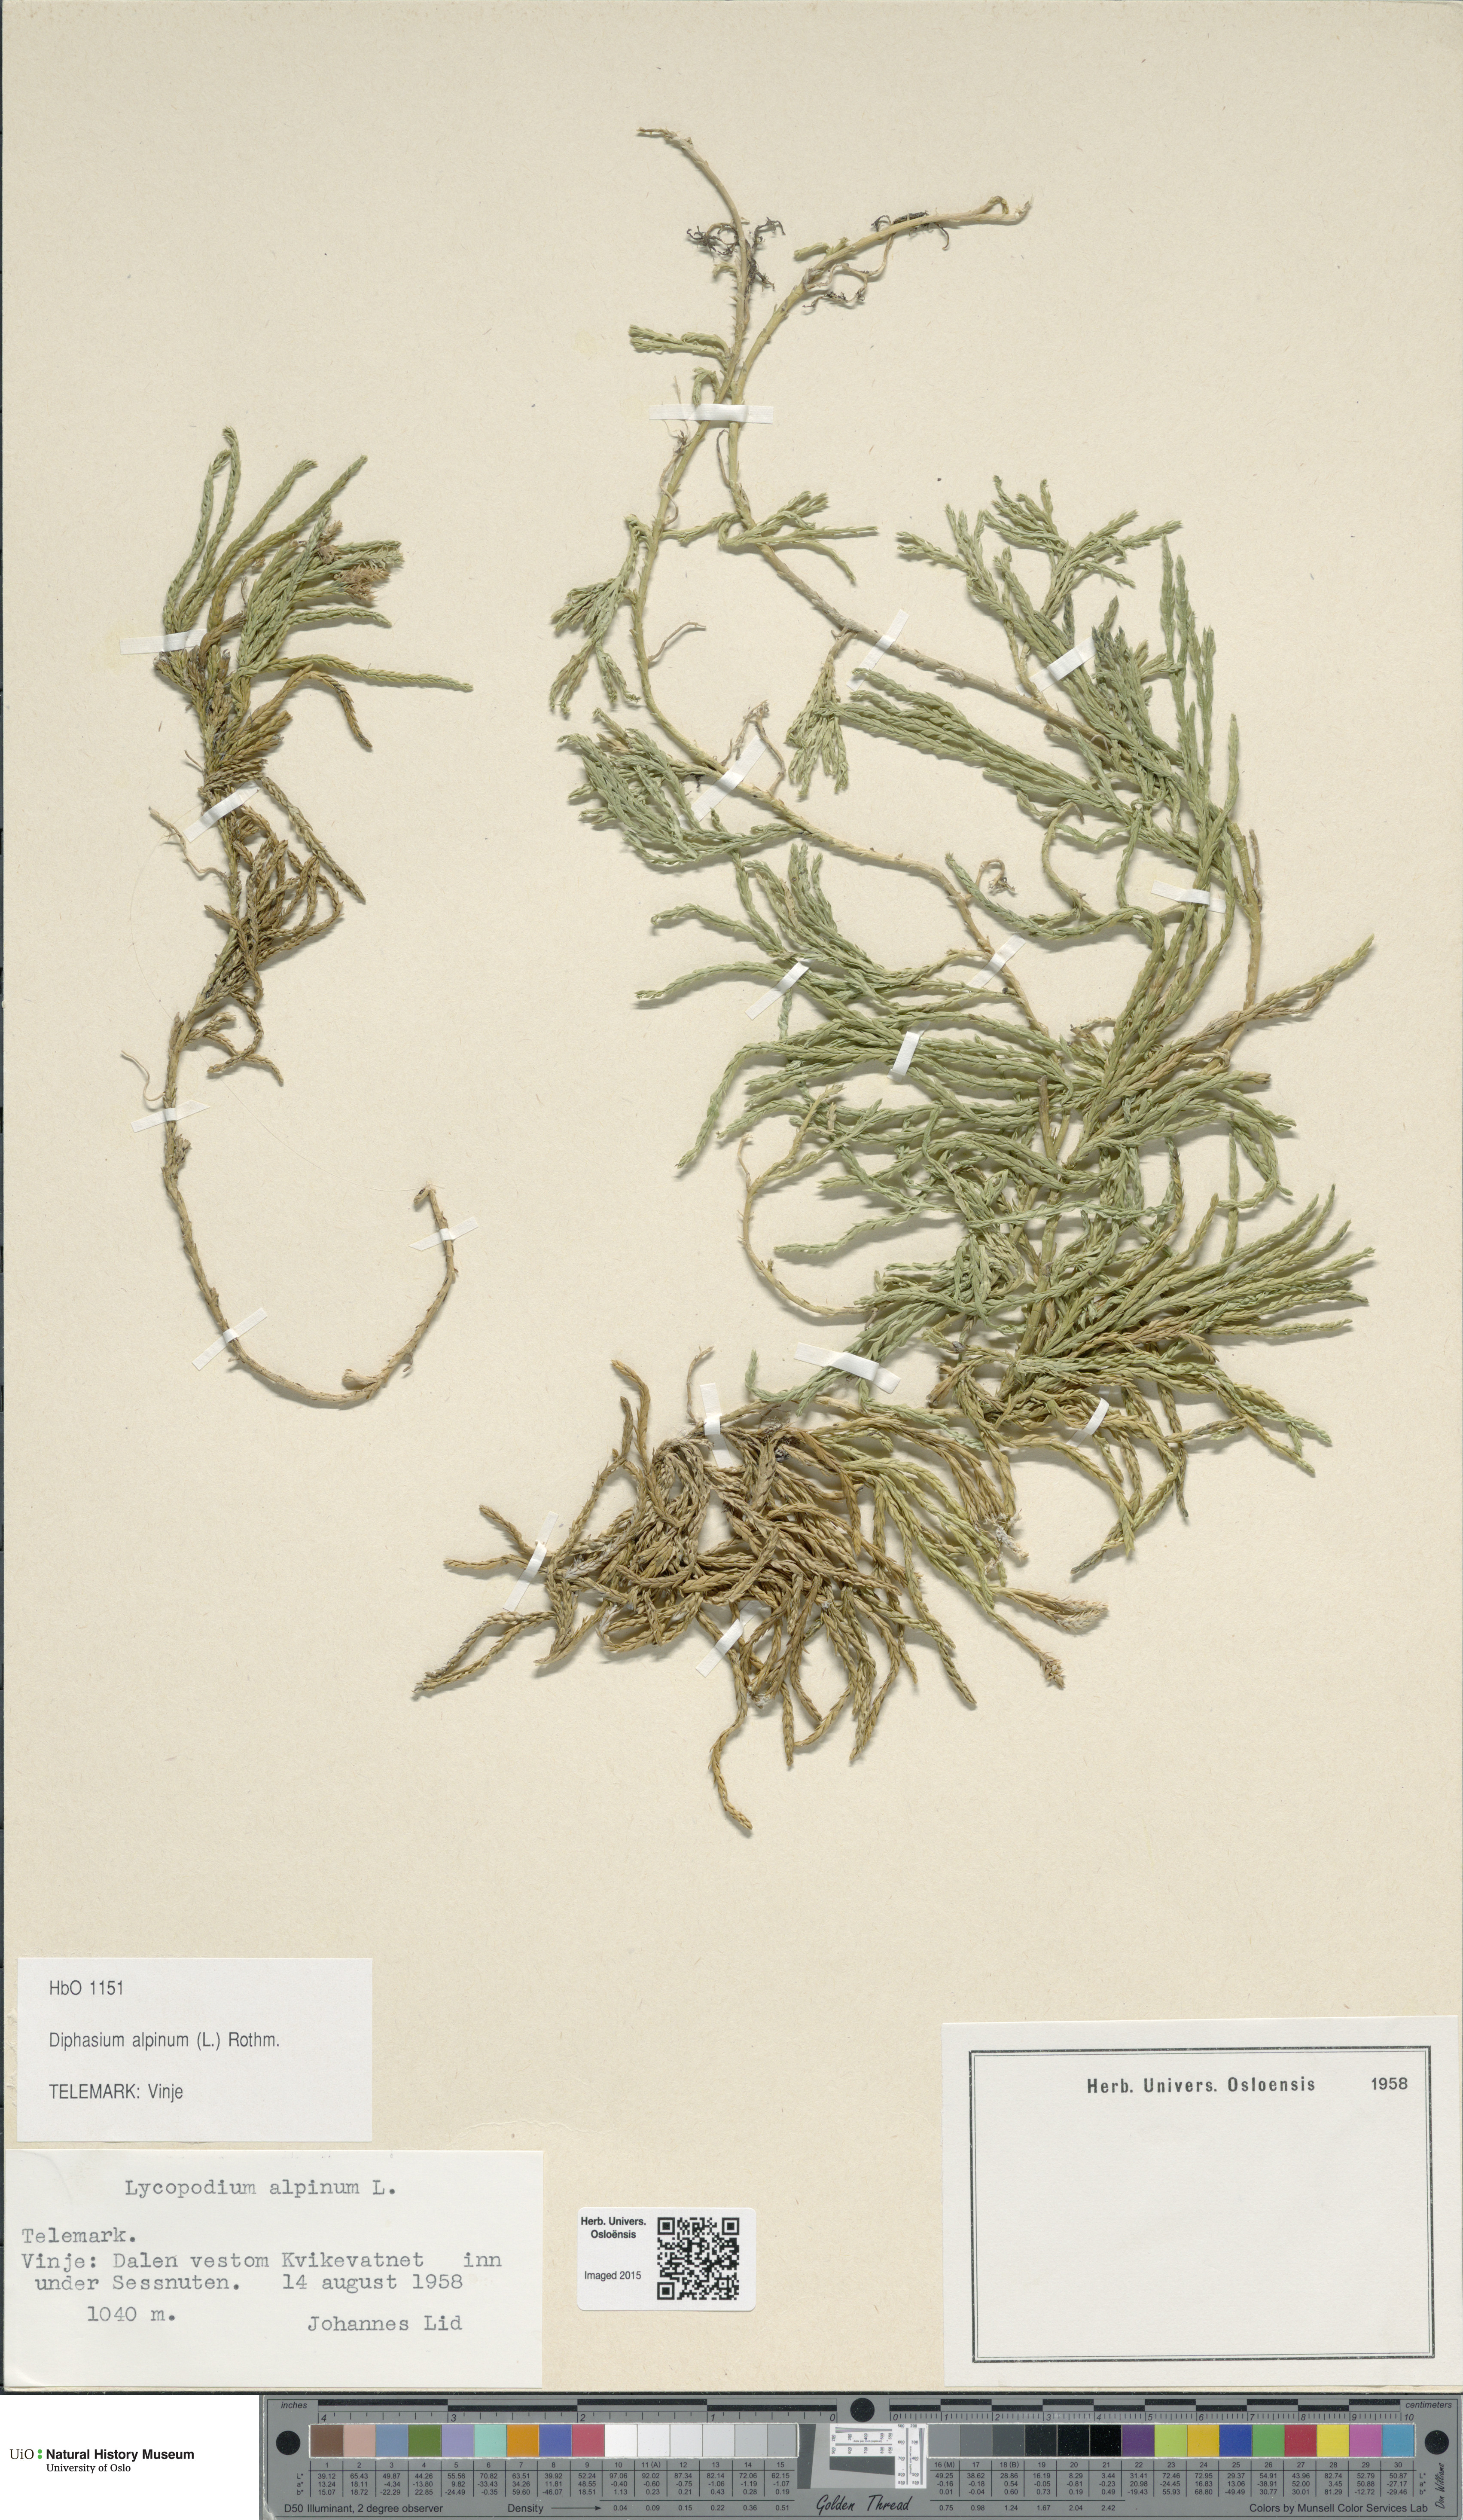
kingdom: Plantae
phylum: Tracheophyta
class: Lycopodiopsida
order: Lycopodiales
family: Lycopodiaceae
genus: Diphasiastrum
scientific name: Diphasiastrum alpinum
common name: Alpine clubmoss
